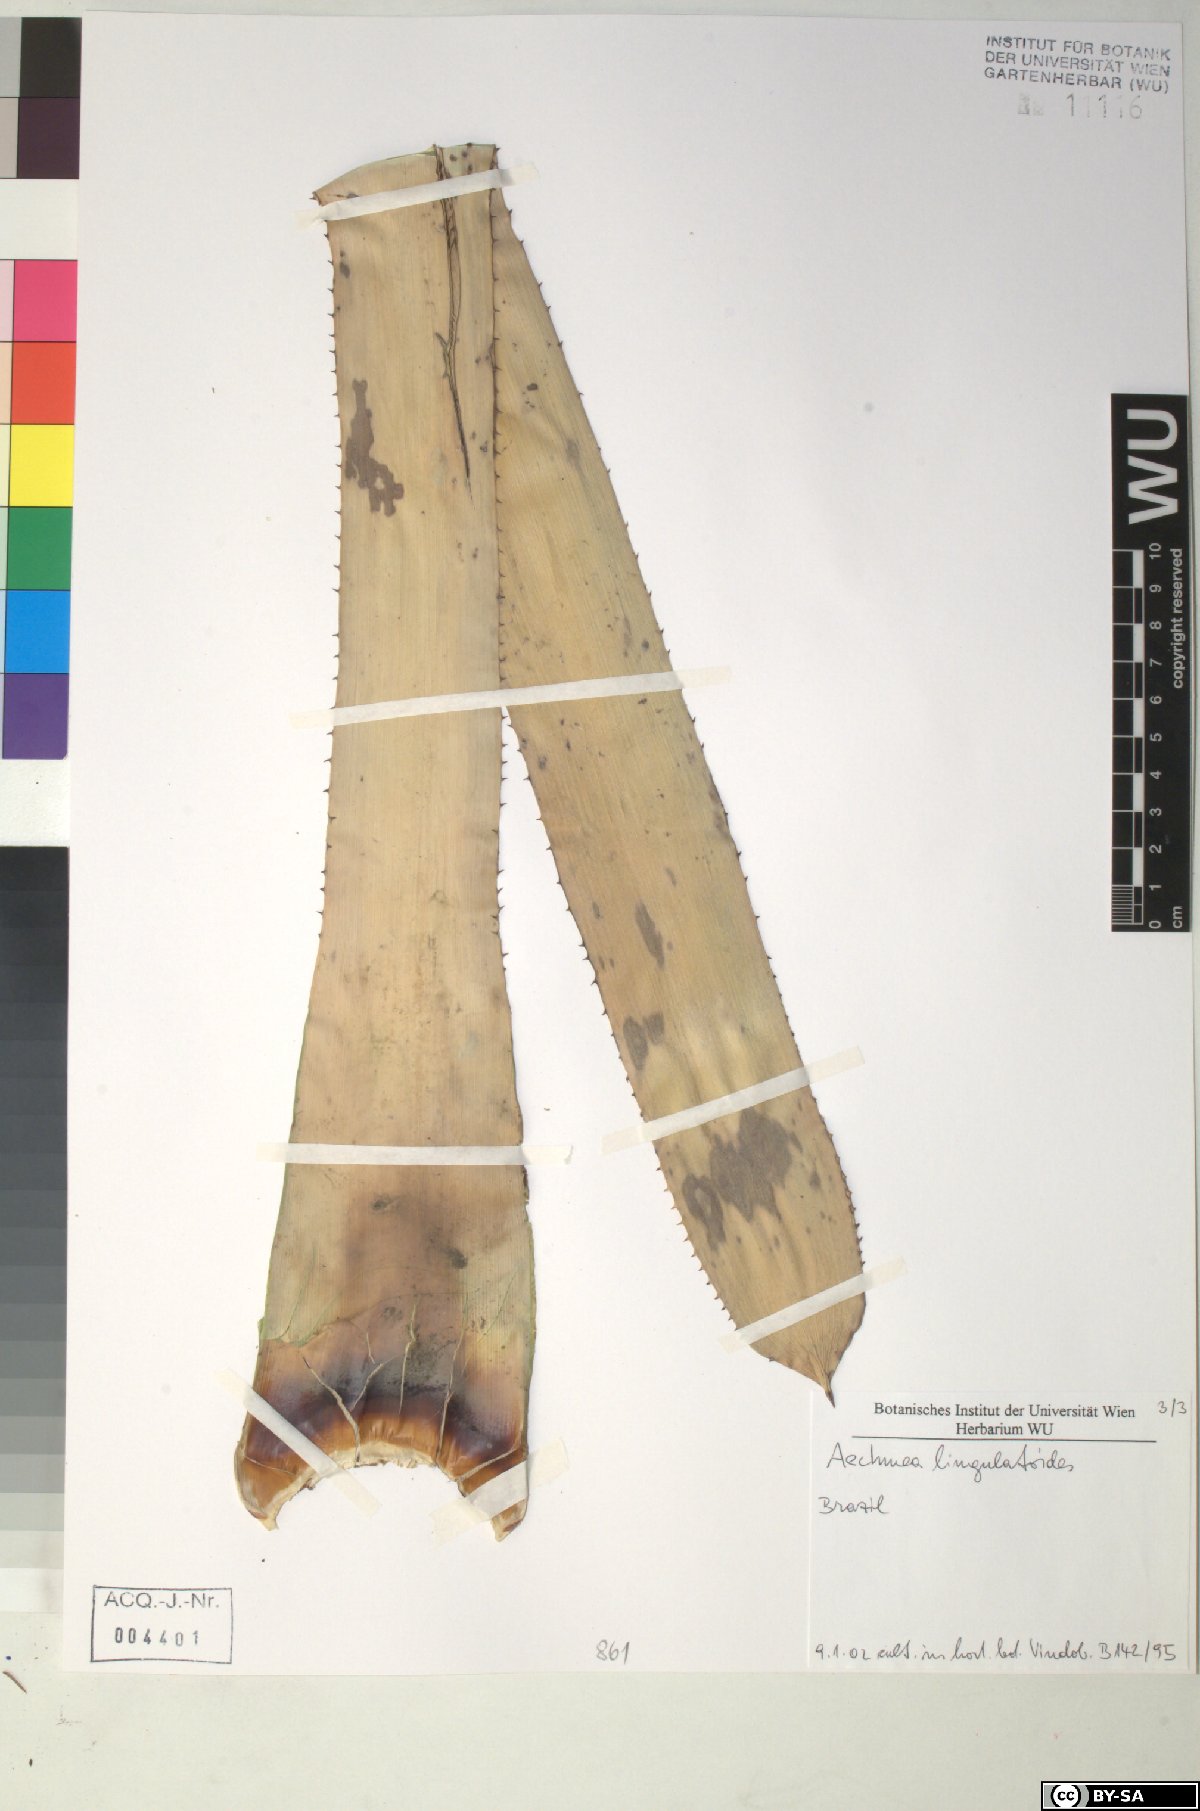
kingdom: Plantae
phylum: Tracheophyta
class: Liliopsida
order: Poales
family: Bromeliaceae
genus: Wittmackia
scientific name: Wittmackia lingulatoides
